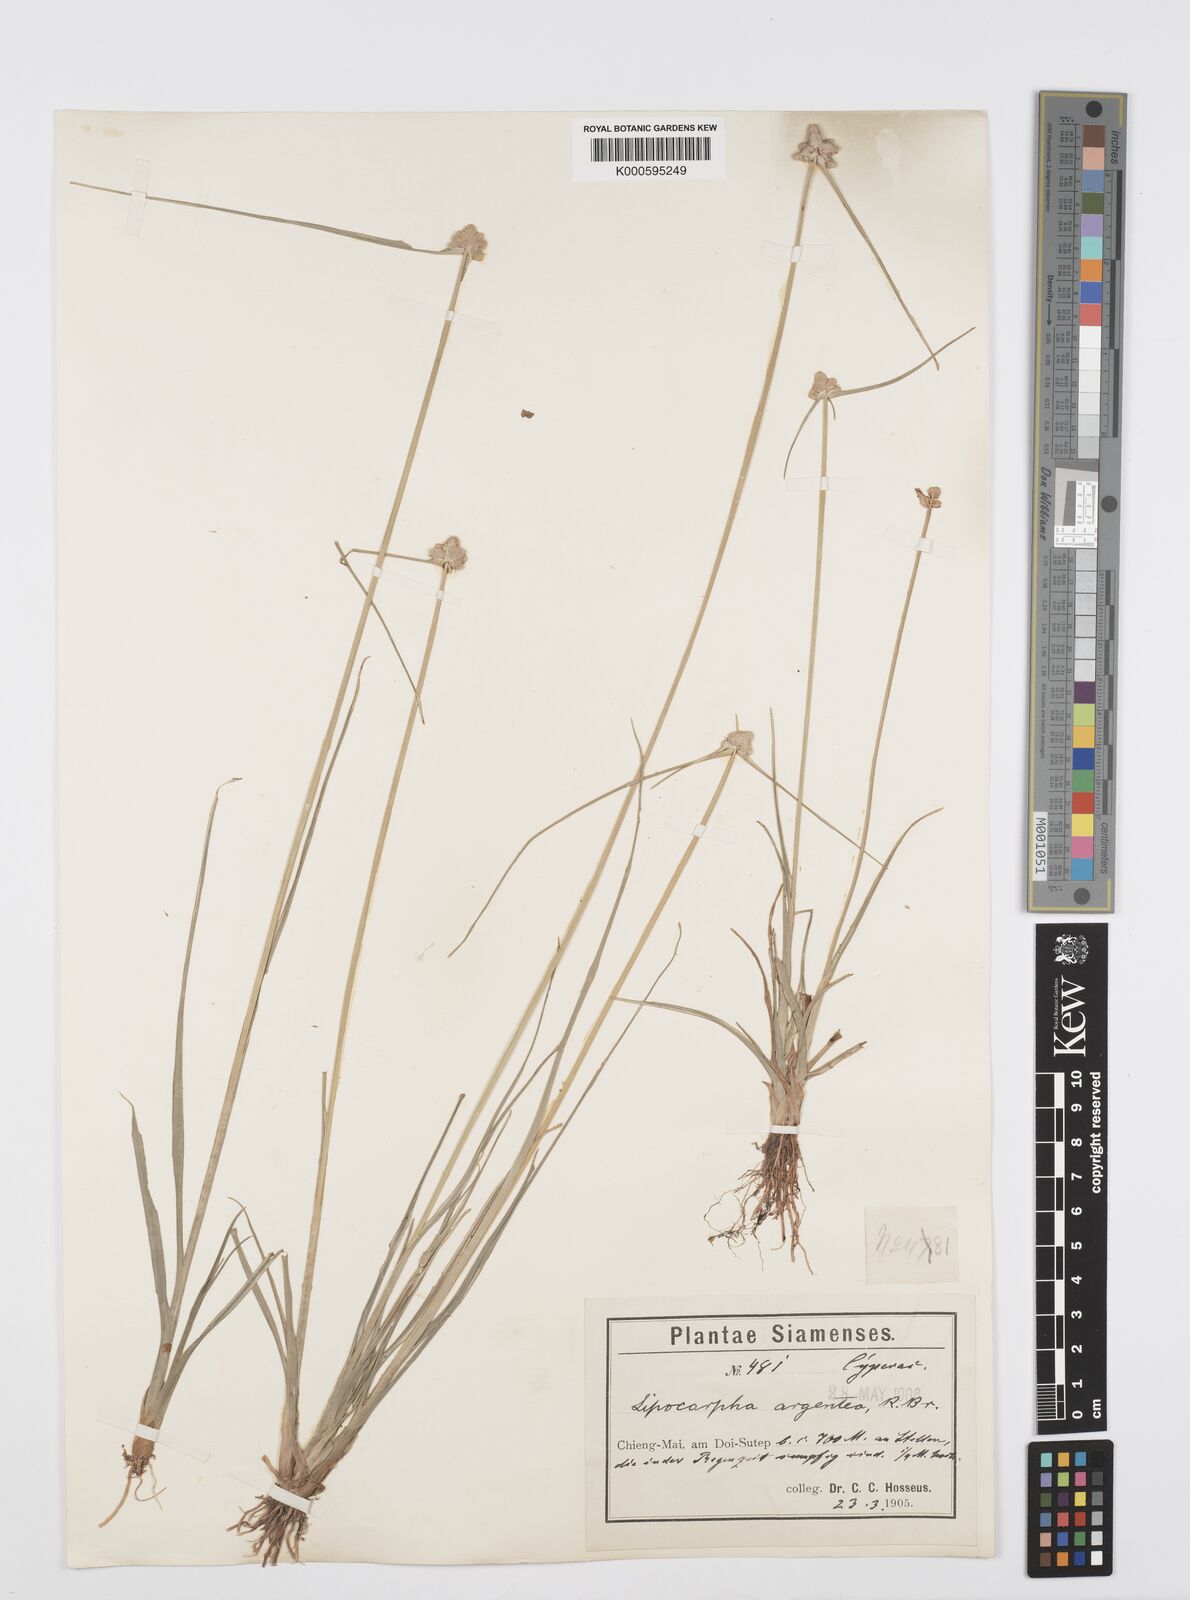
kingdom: Plantae
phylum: Tracheophyta
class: Liliopsida
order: Poales
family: Cyperaceae
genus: Cyperus
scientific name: Cyperus albescens
